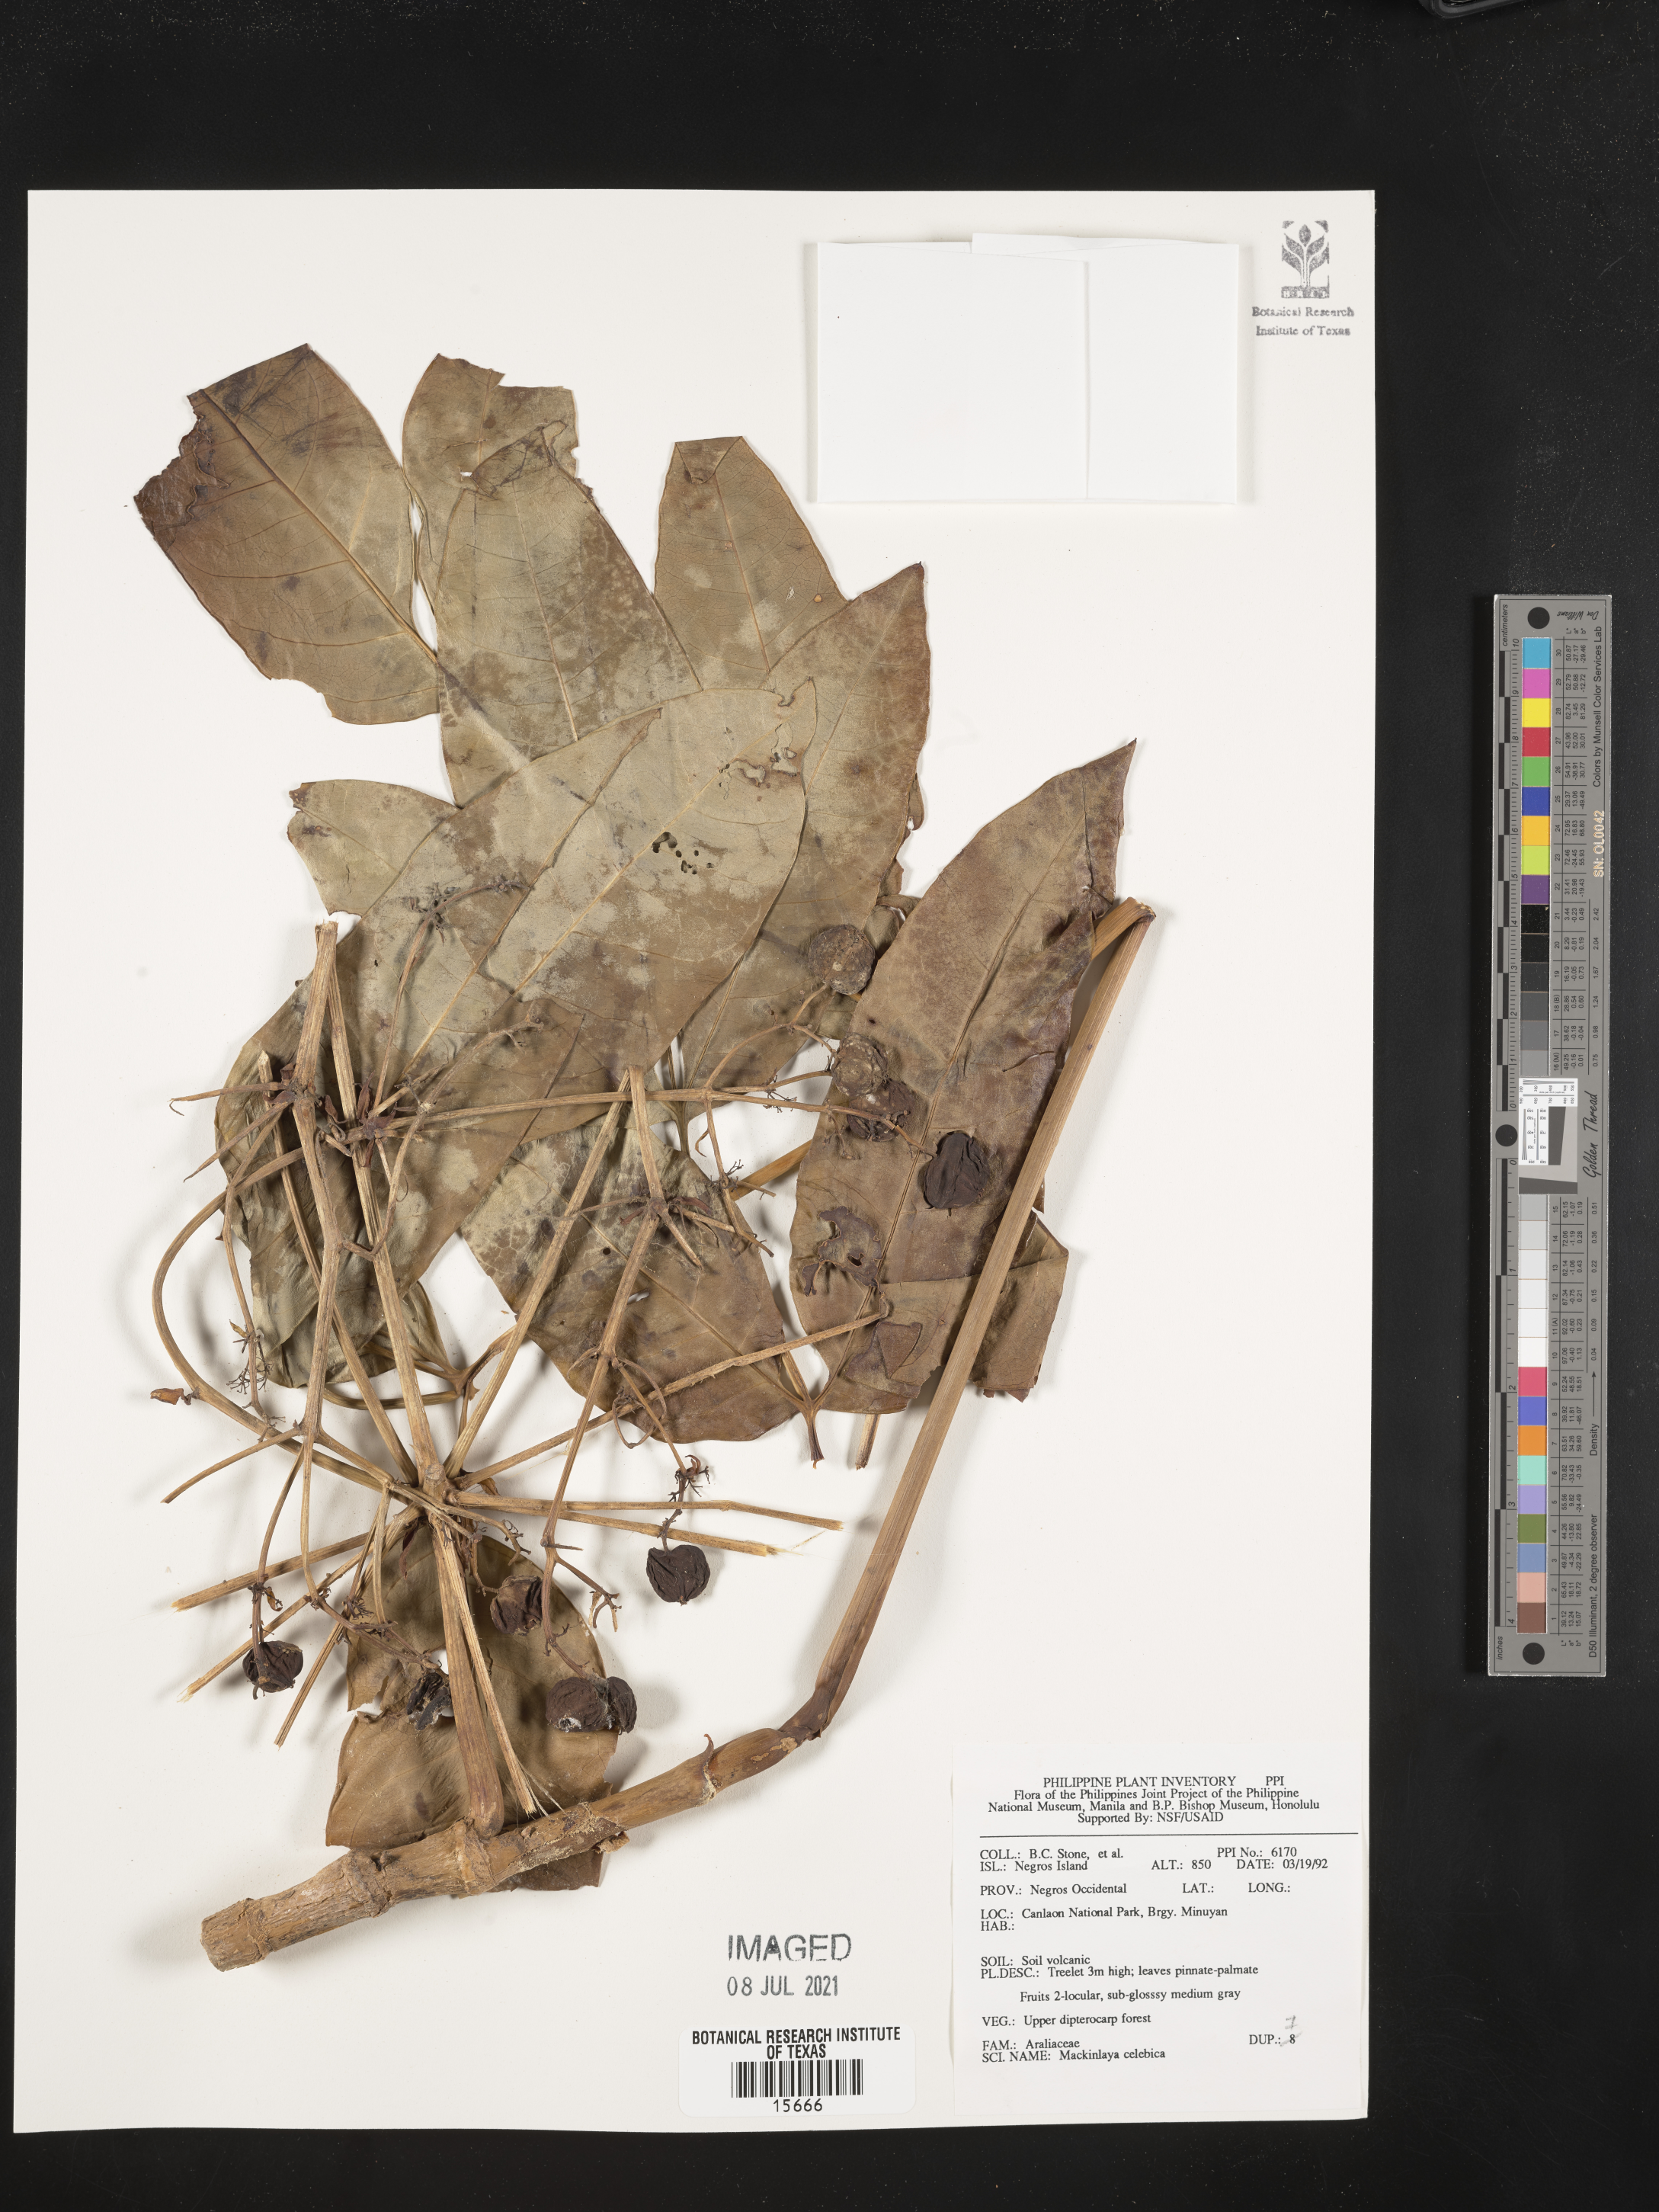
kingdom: Plantae
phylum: Tracheophyta
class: Magnoliopsida
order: Apiales
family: Apiaceae
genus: Mackinlaya
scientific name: Mackinlaya celebica
